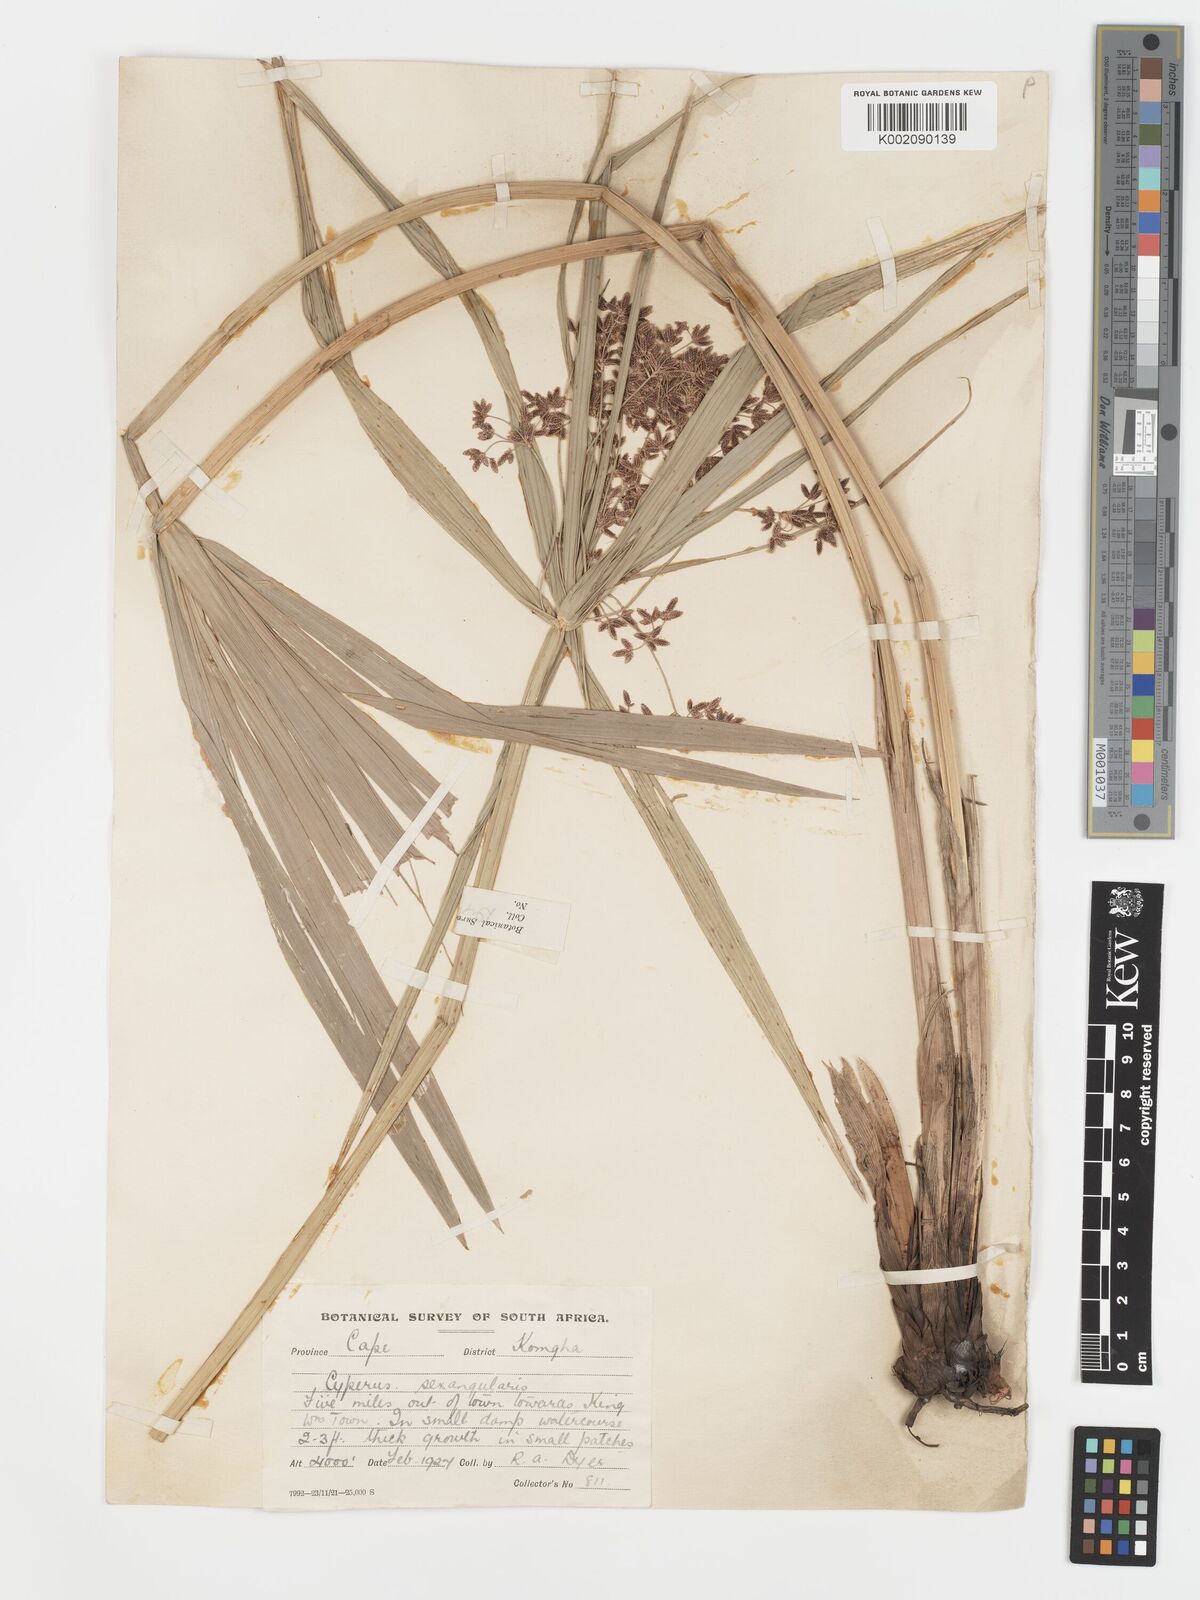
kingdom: Plantae
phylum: Tracheophyta
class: Liliopsida
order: Poales
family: Cyperaceae
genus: Cyperus
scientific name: Cyperus sexangularis
